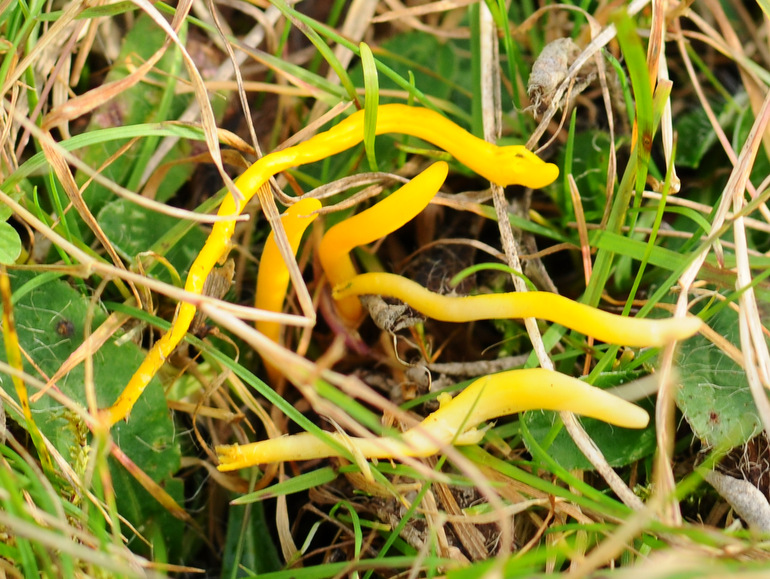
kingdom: Fungi
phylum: Basidiomycota
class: Agaricomycetes
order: Agaricales
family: Clavariaceae
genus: Clavulinopsis
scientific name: Clavulinopsis helvola
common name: orangegul køllesvamp
